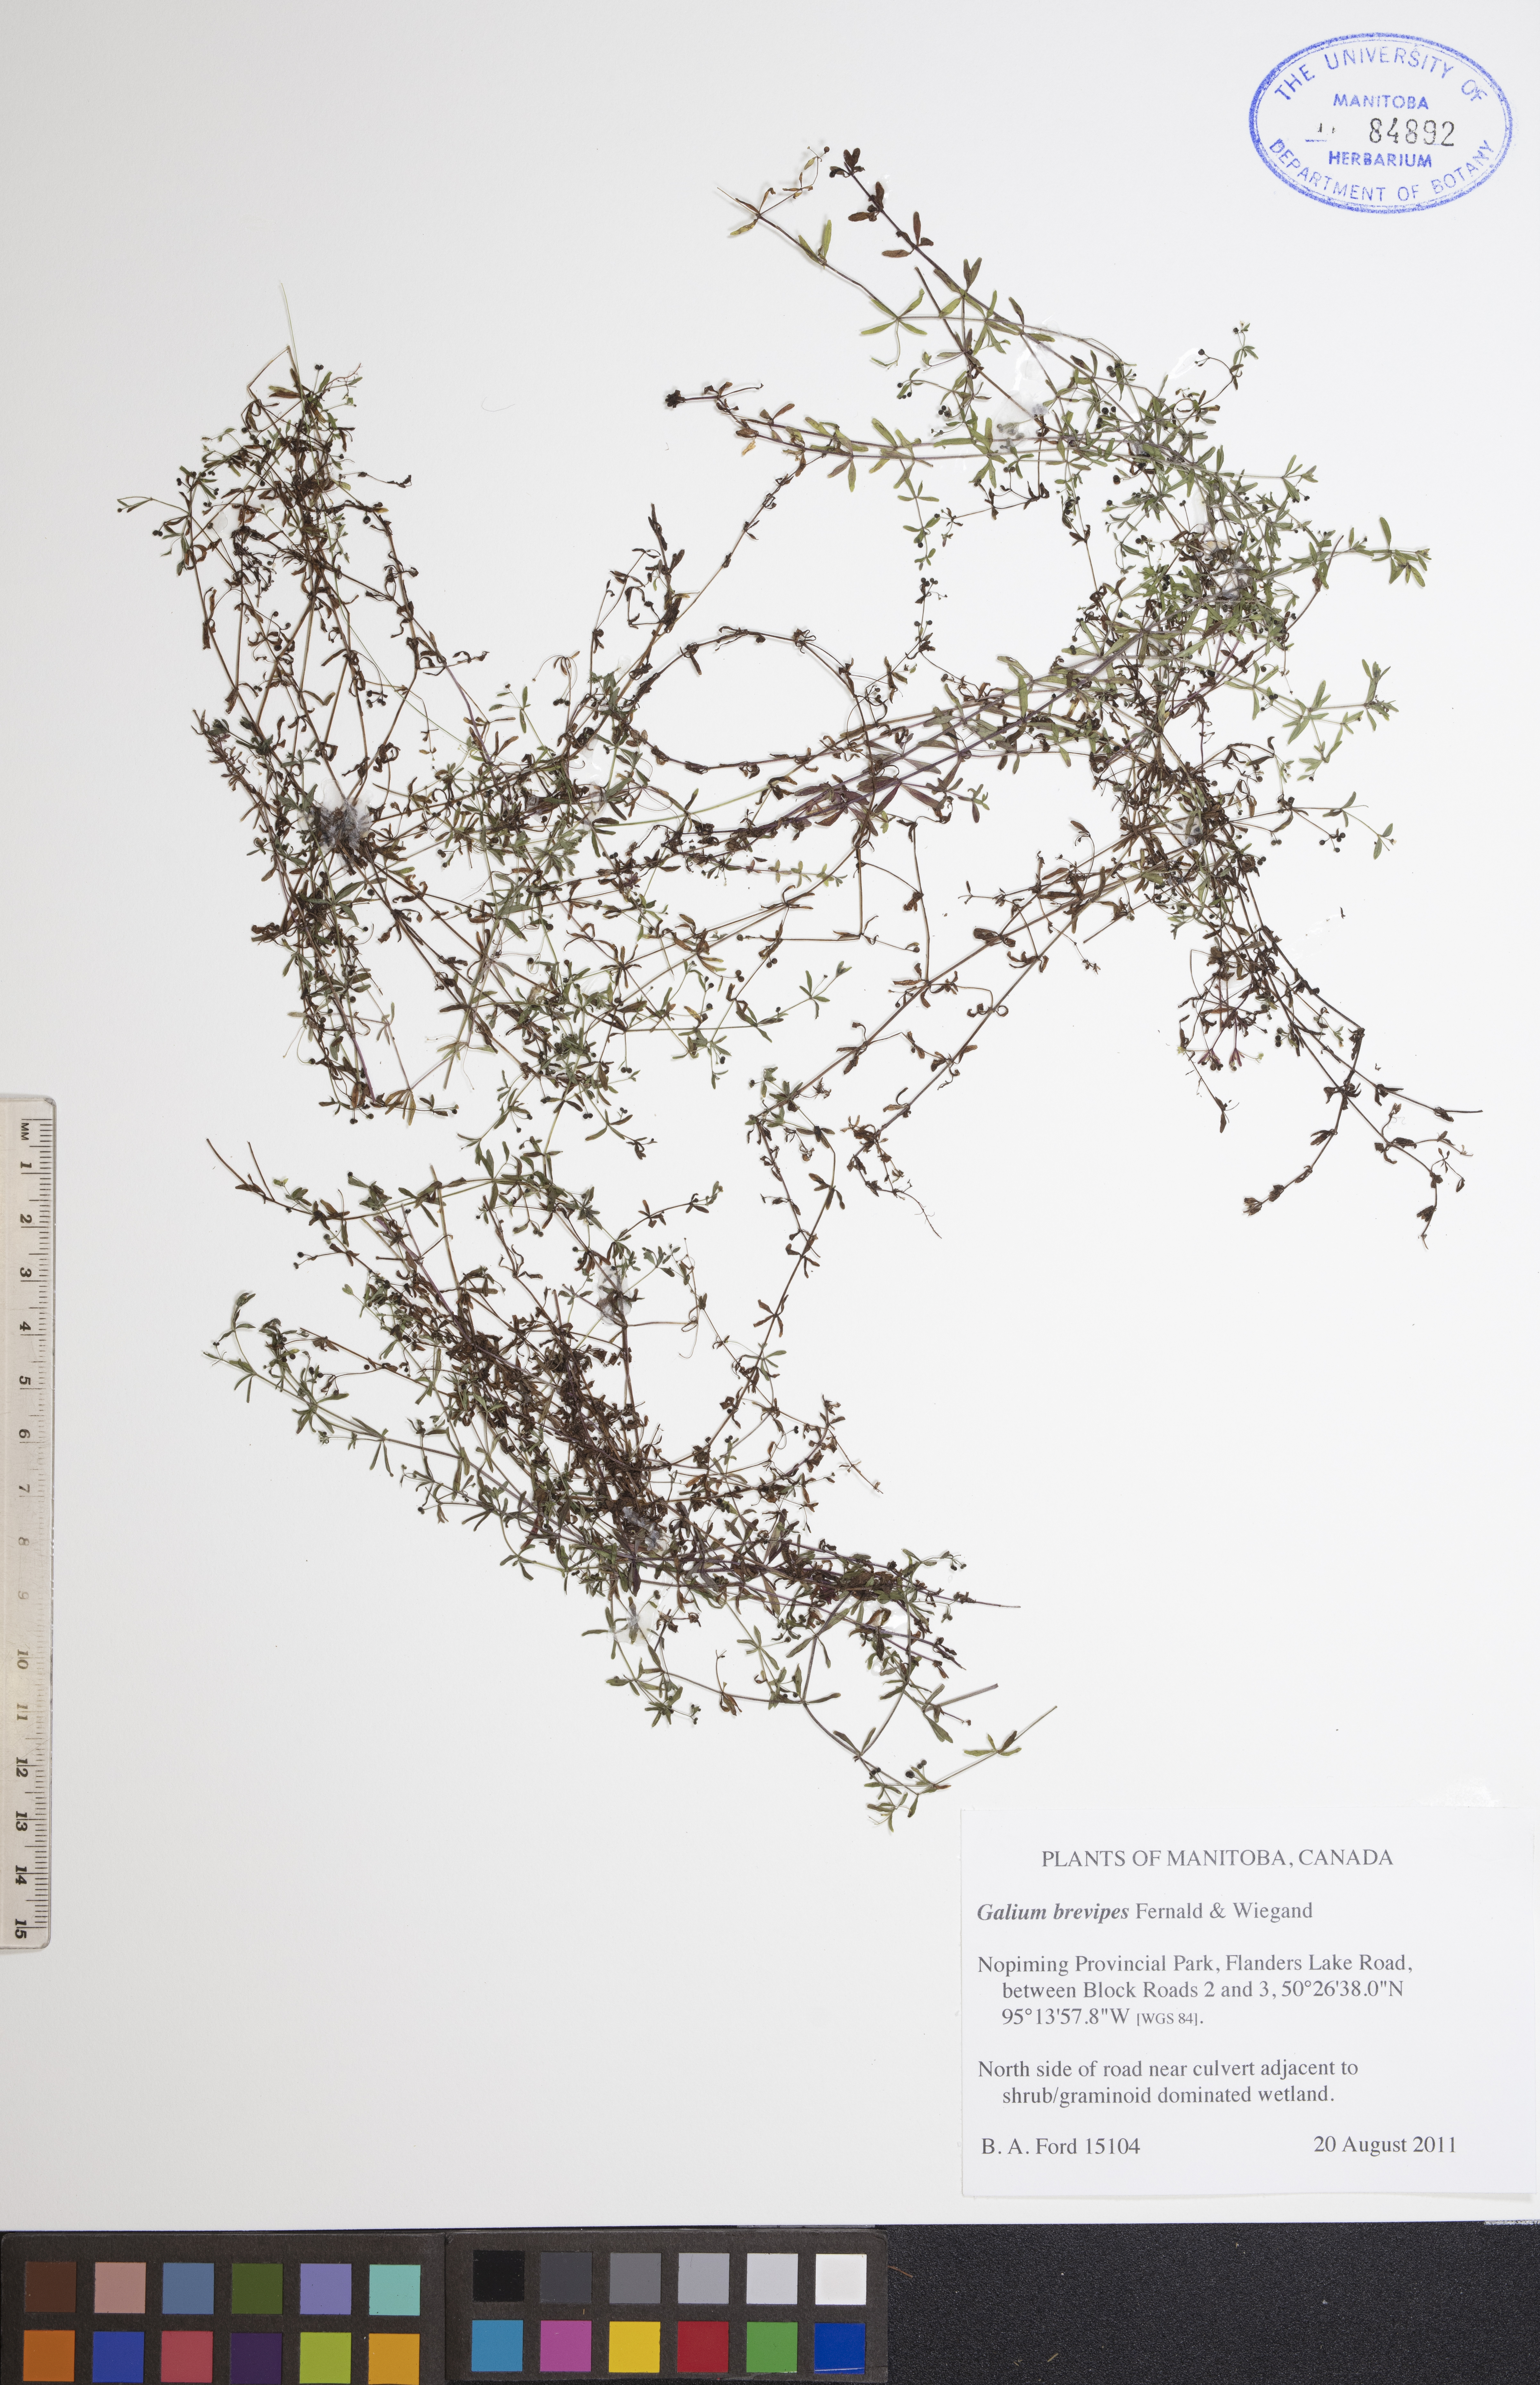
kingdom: Plantae
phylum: Tracheophyta
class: Magnoliopsida
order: Gentianales
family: Rubiaceae
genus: Galium
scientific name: Galium domingense
